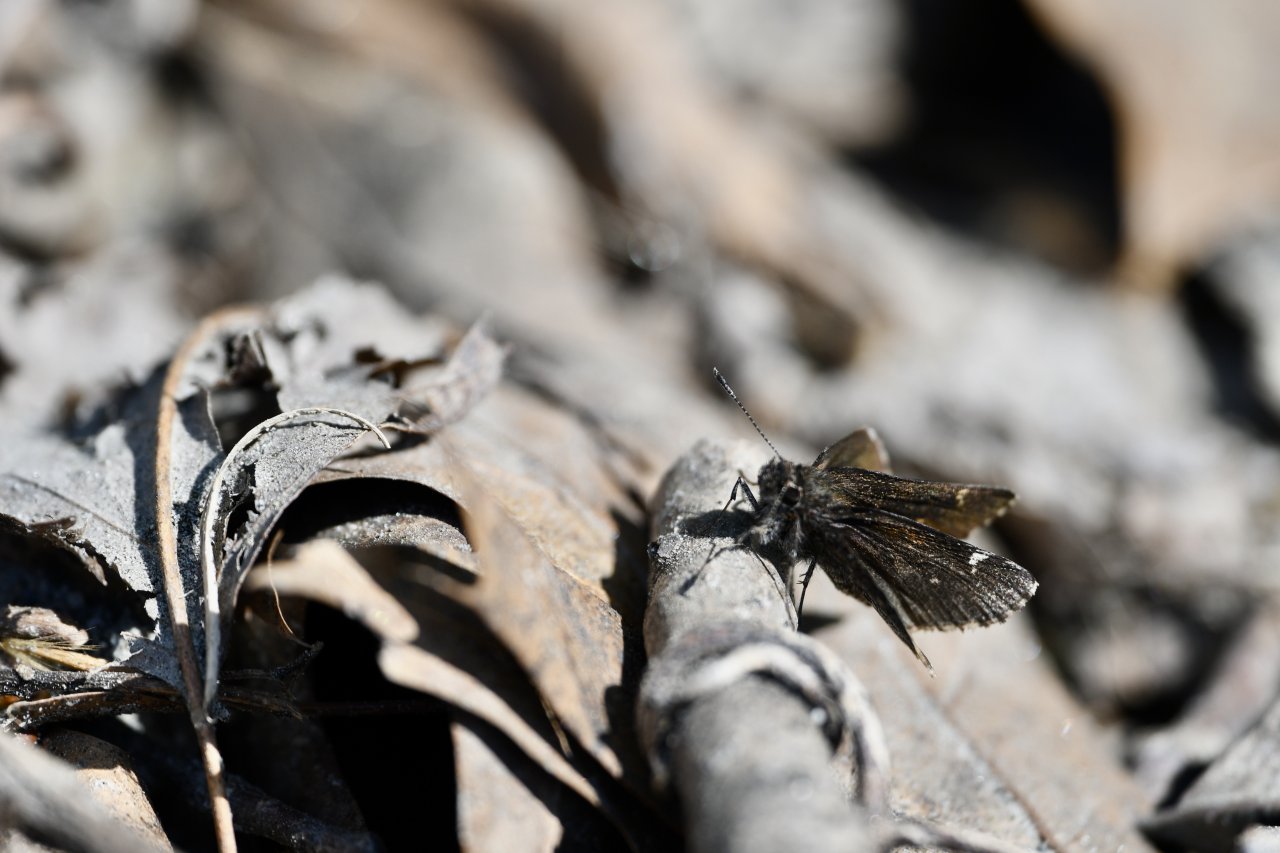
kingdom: Animalia
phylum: Arthropoda
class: Insecta
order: Lepidoptera
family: Hesperiidae
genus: Mastor
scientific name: Mastor vialis
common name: Common Roadside-Skipper
